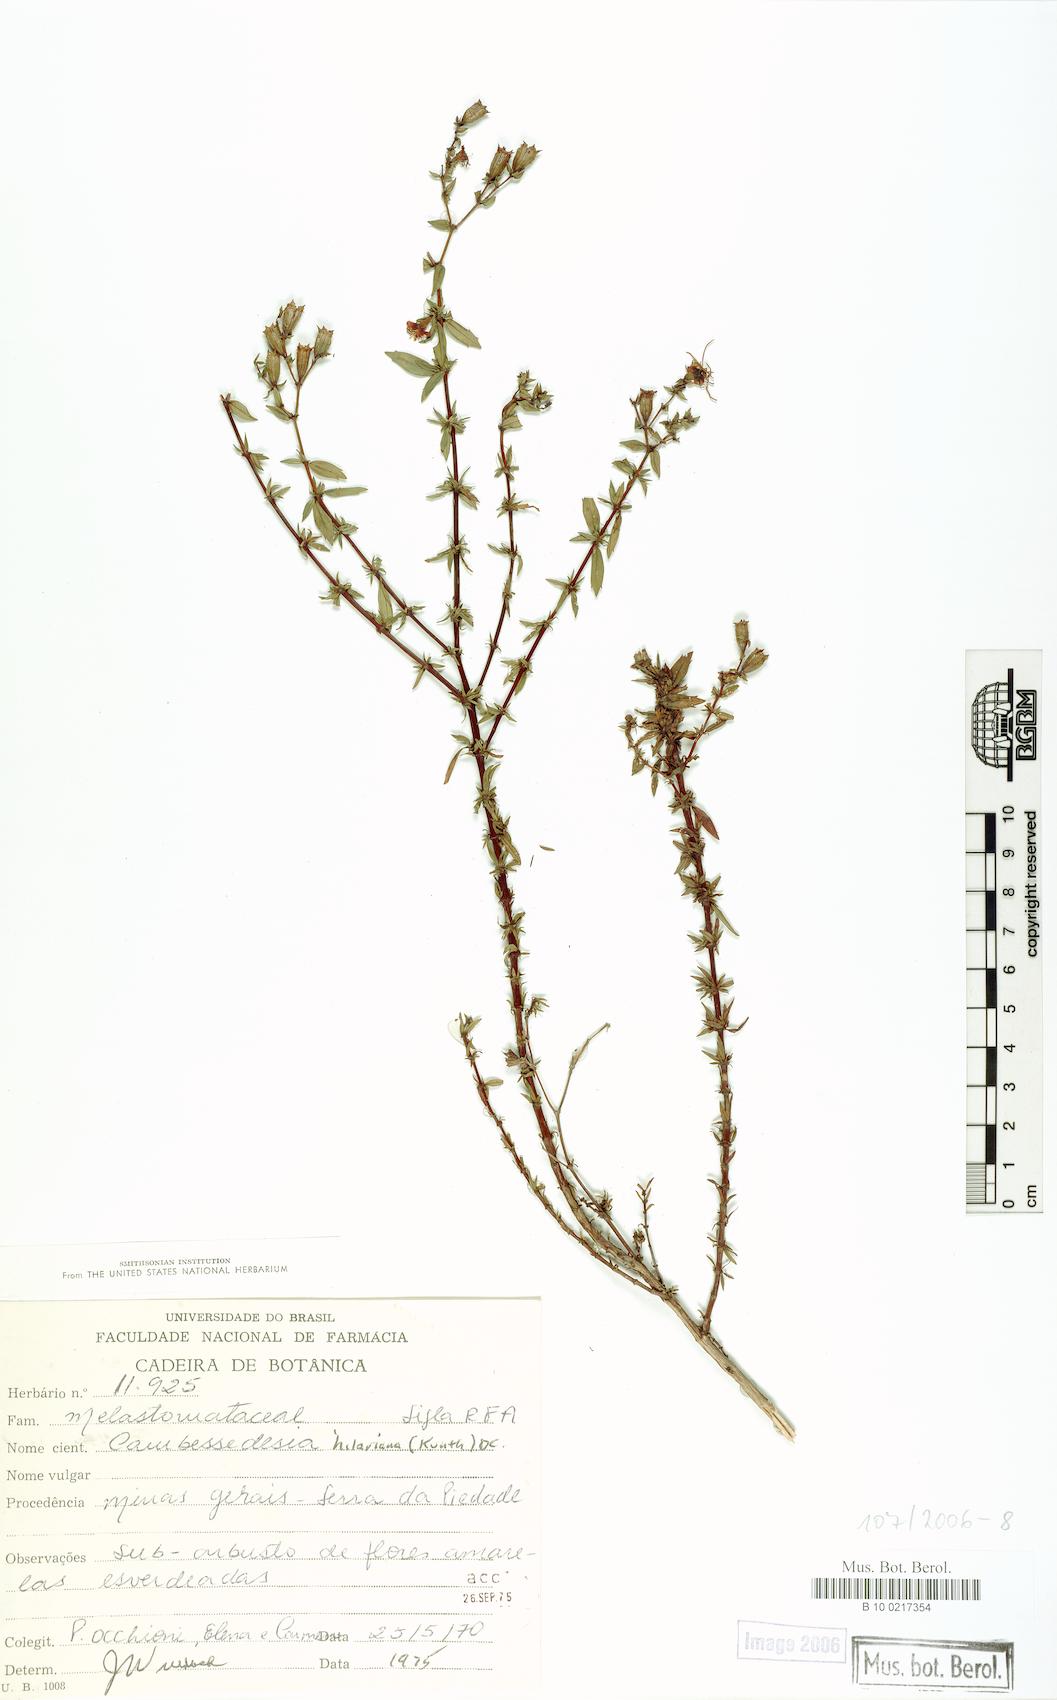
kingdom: Plantae
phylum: Tracheophyta
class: Magnoliopsida
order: Myrtales
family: Melastomataceae
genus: Cambessedesia
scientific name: Cambessedesia hilariana
